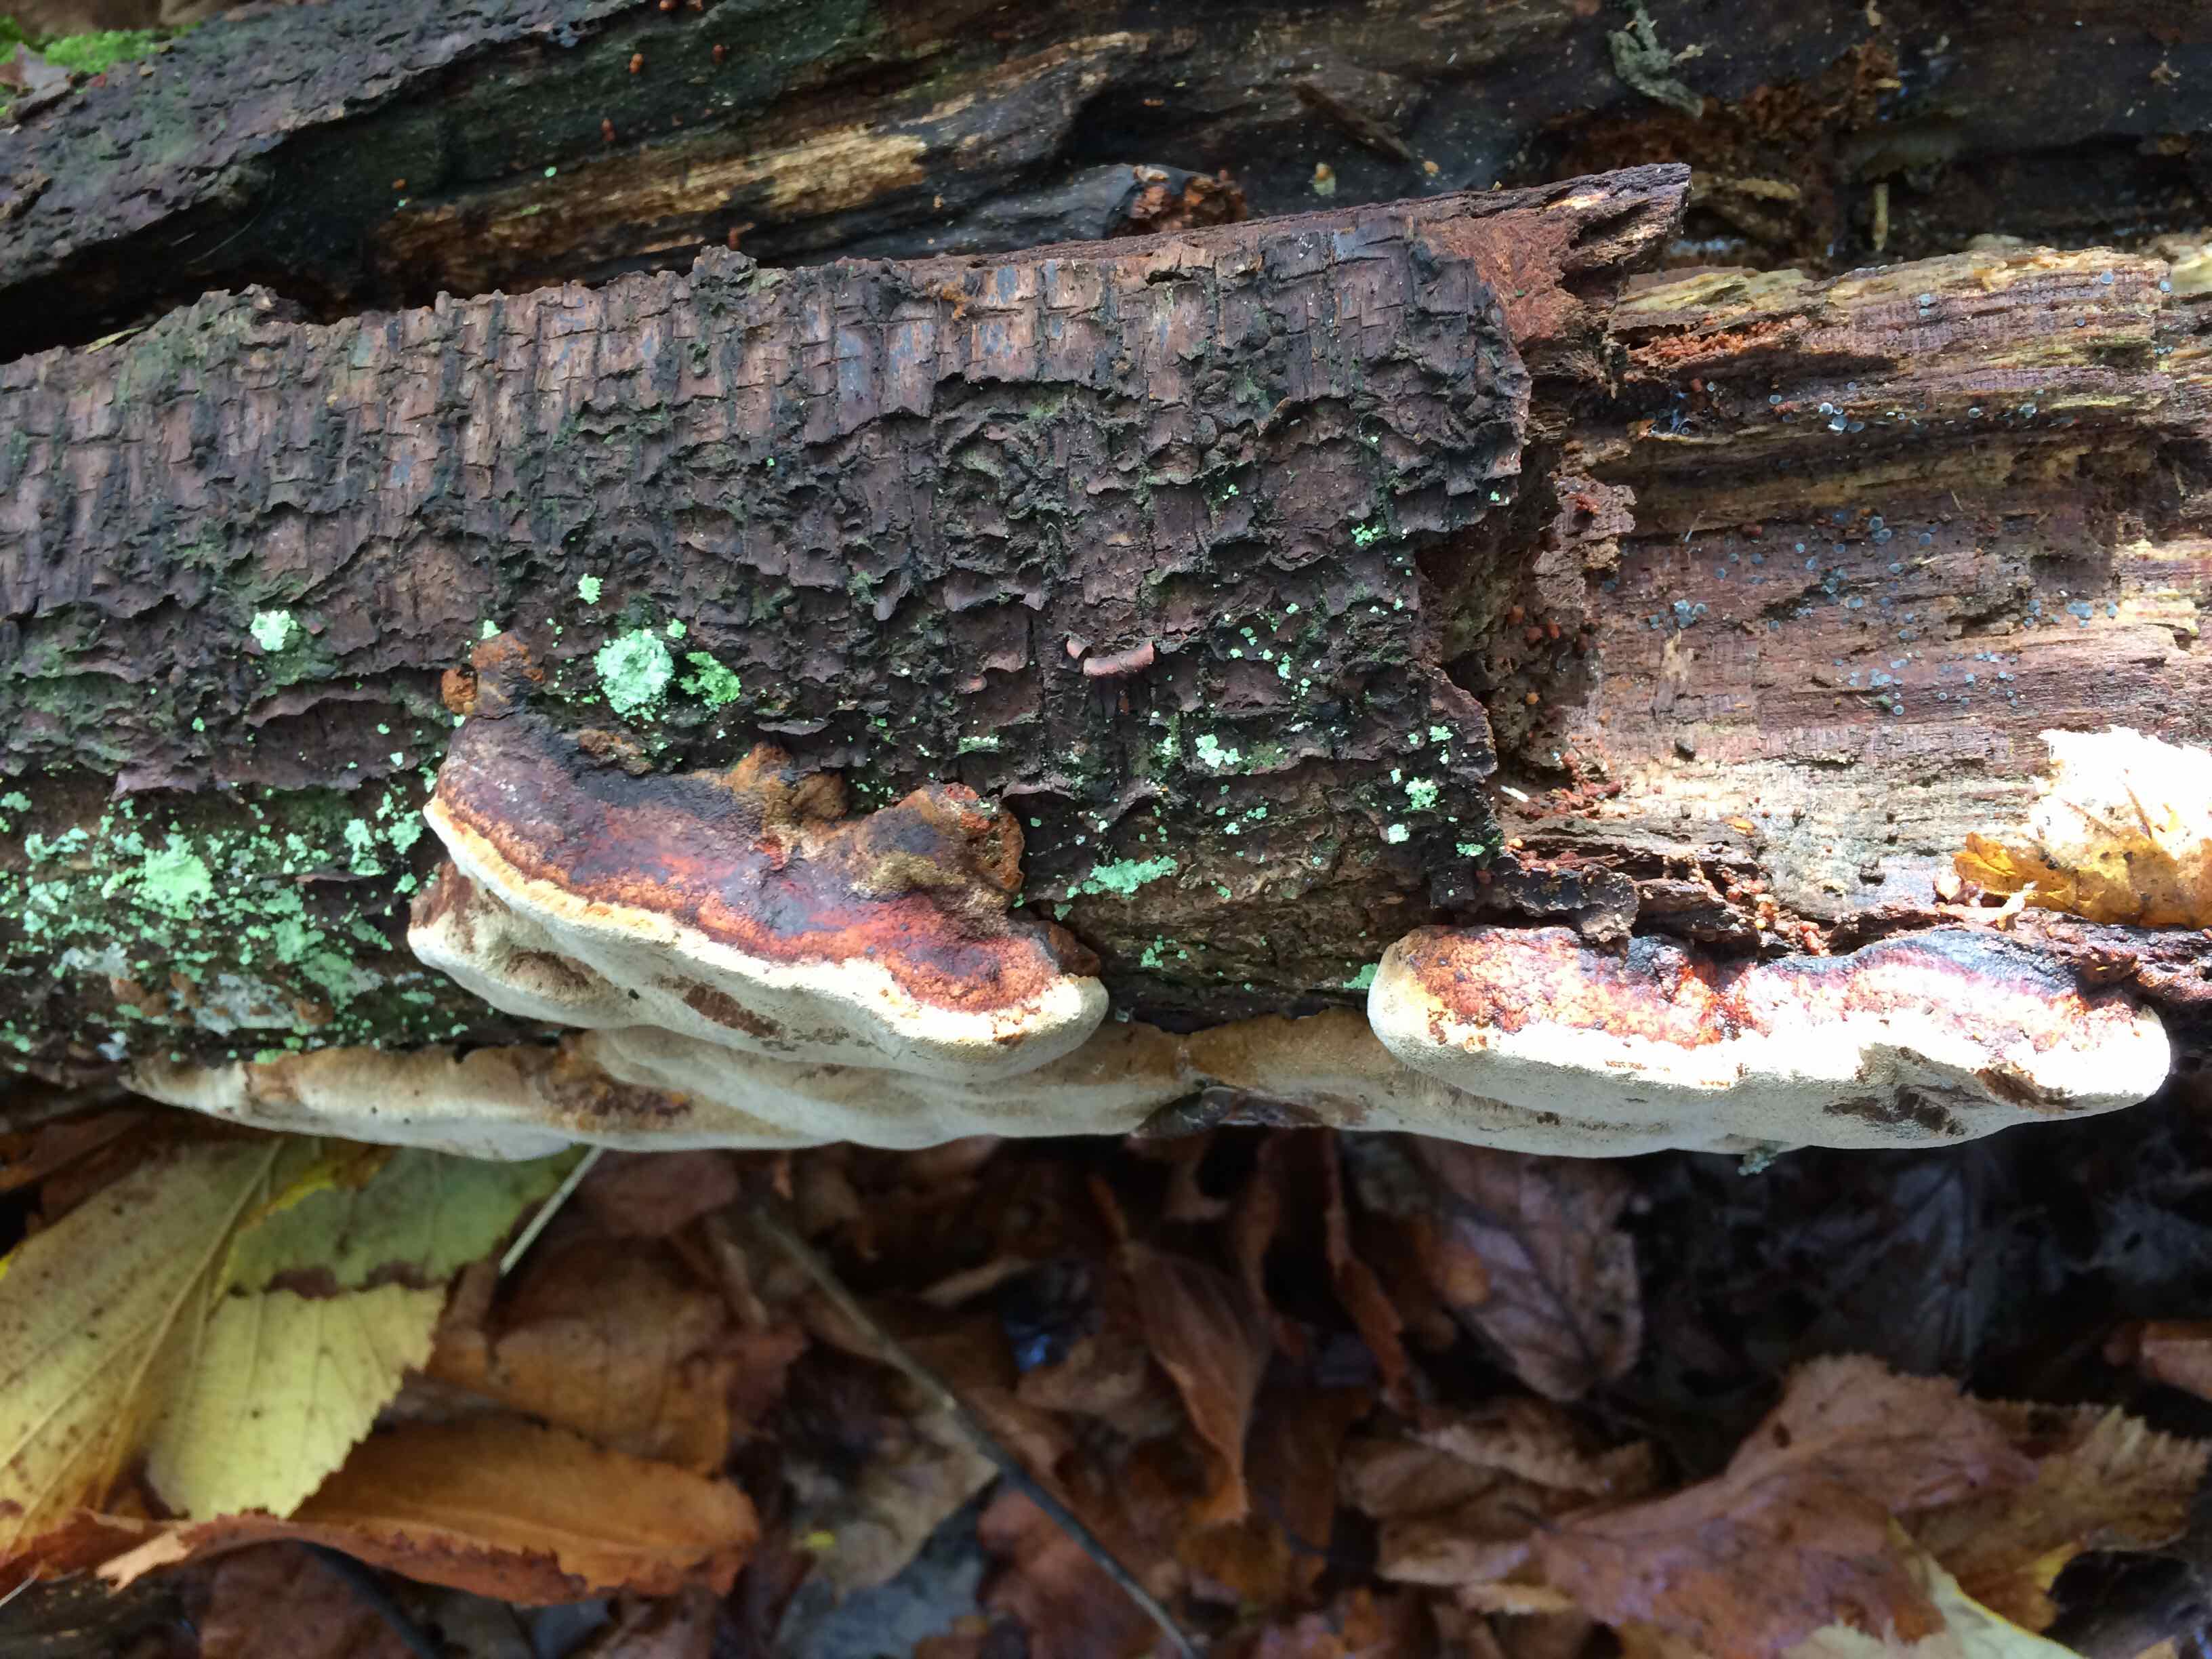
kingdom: Fungi
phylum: Basidiomycota
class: Agaricomycetes
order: Hymenochaetales
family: Hymenochaetaceae
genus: Phellinus
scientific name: Phellinus pomaceus
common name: blomme-ildporesvamp
